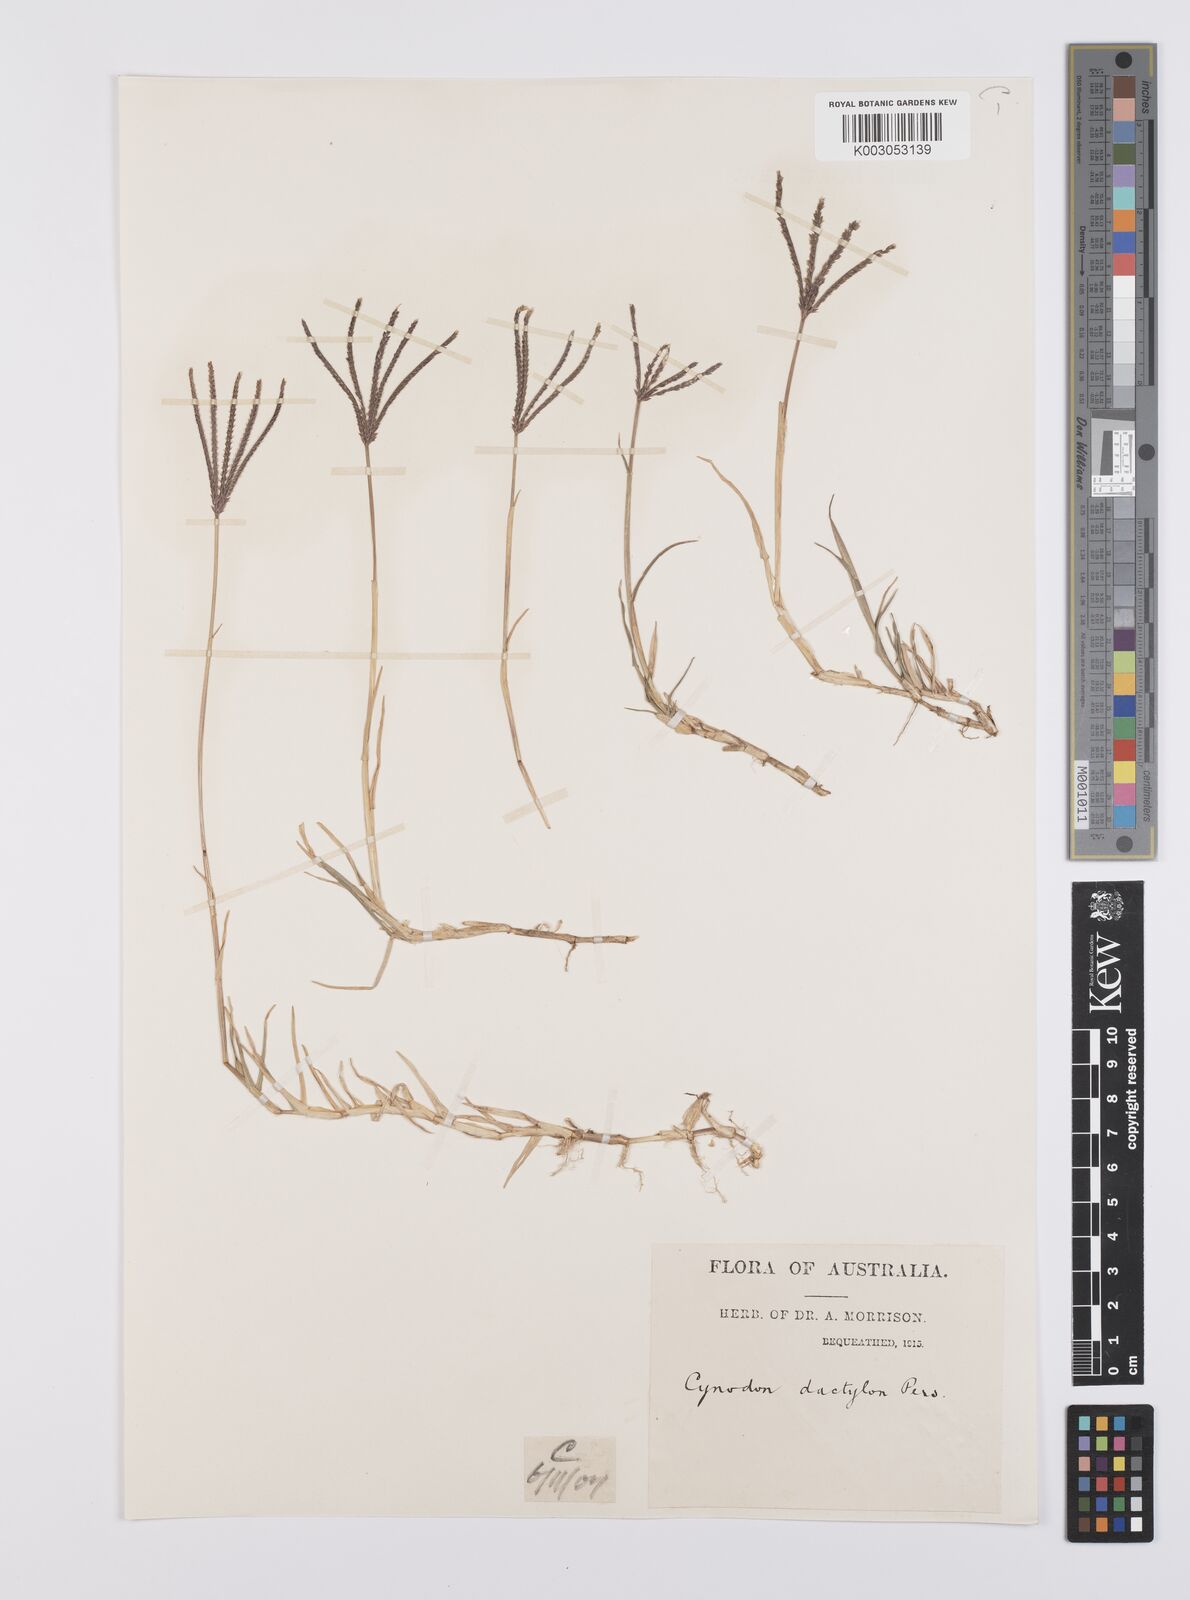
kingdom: Plantae
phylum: Tracheophyta
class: Liliopsida
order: Poales
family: Poaceae
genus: Cynodon
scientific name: Cynodon dactylon
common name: Bermuda grass
